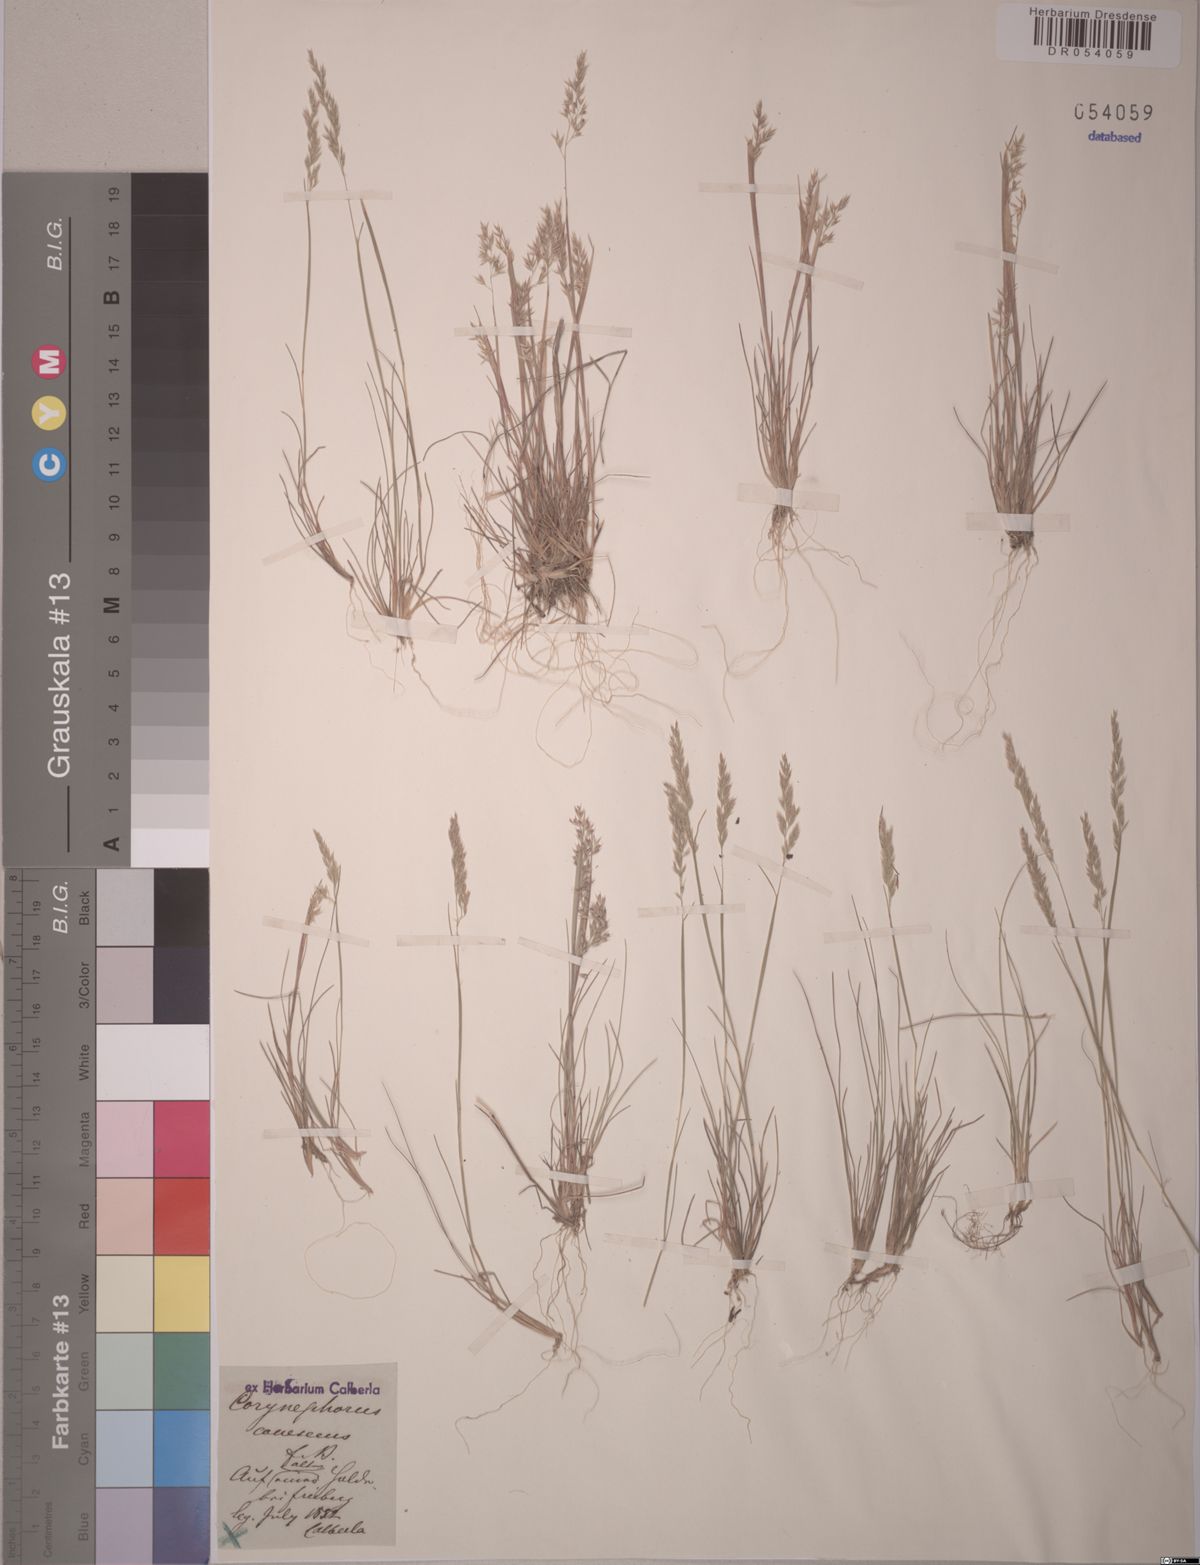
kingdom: Plantae
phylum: Tracheophyta
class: Liliopsida
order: Poales
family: Poaceae
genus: Corynephorus
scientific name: Corynephorus canescens
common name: Grey hair-grass
